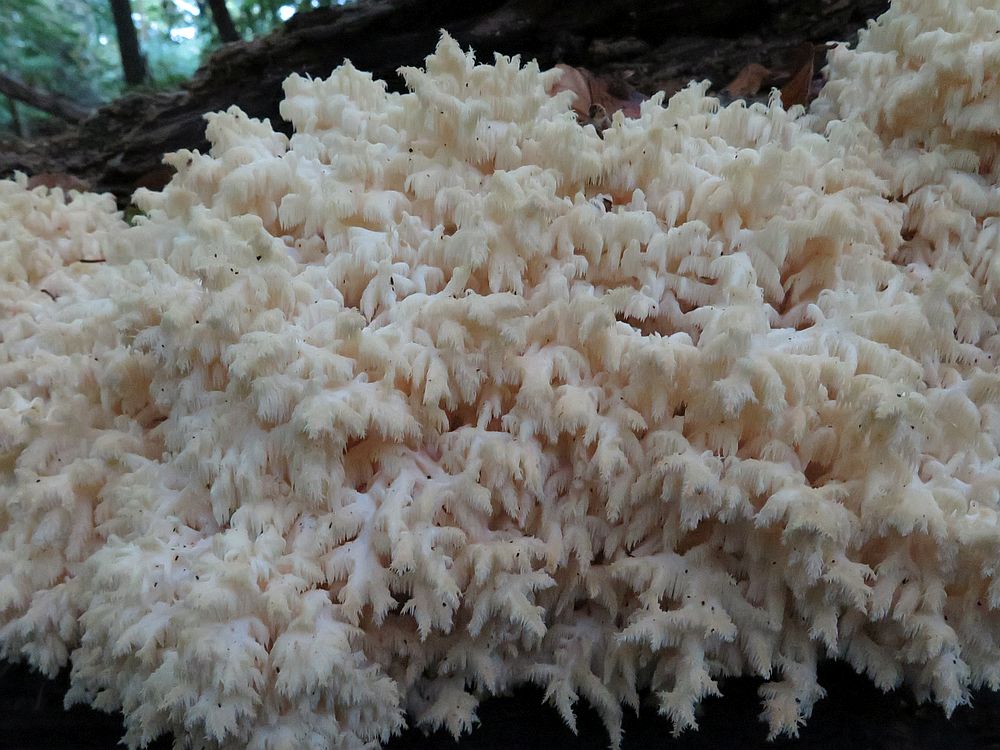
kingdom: Fungi
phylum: Basidiomycota
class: Agaricomycetes
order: Russulales
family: Hericiaceae
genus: Hericium
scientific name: Hericium coralloides
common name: koralpigsvamp
